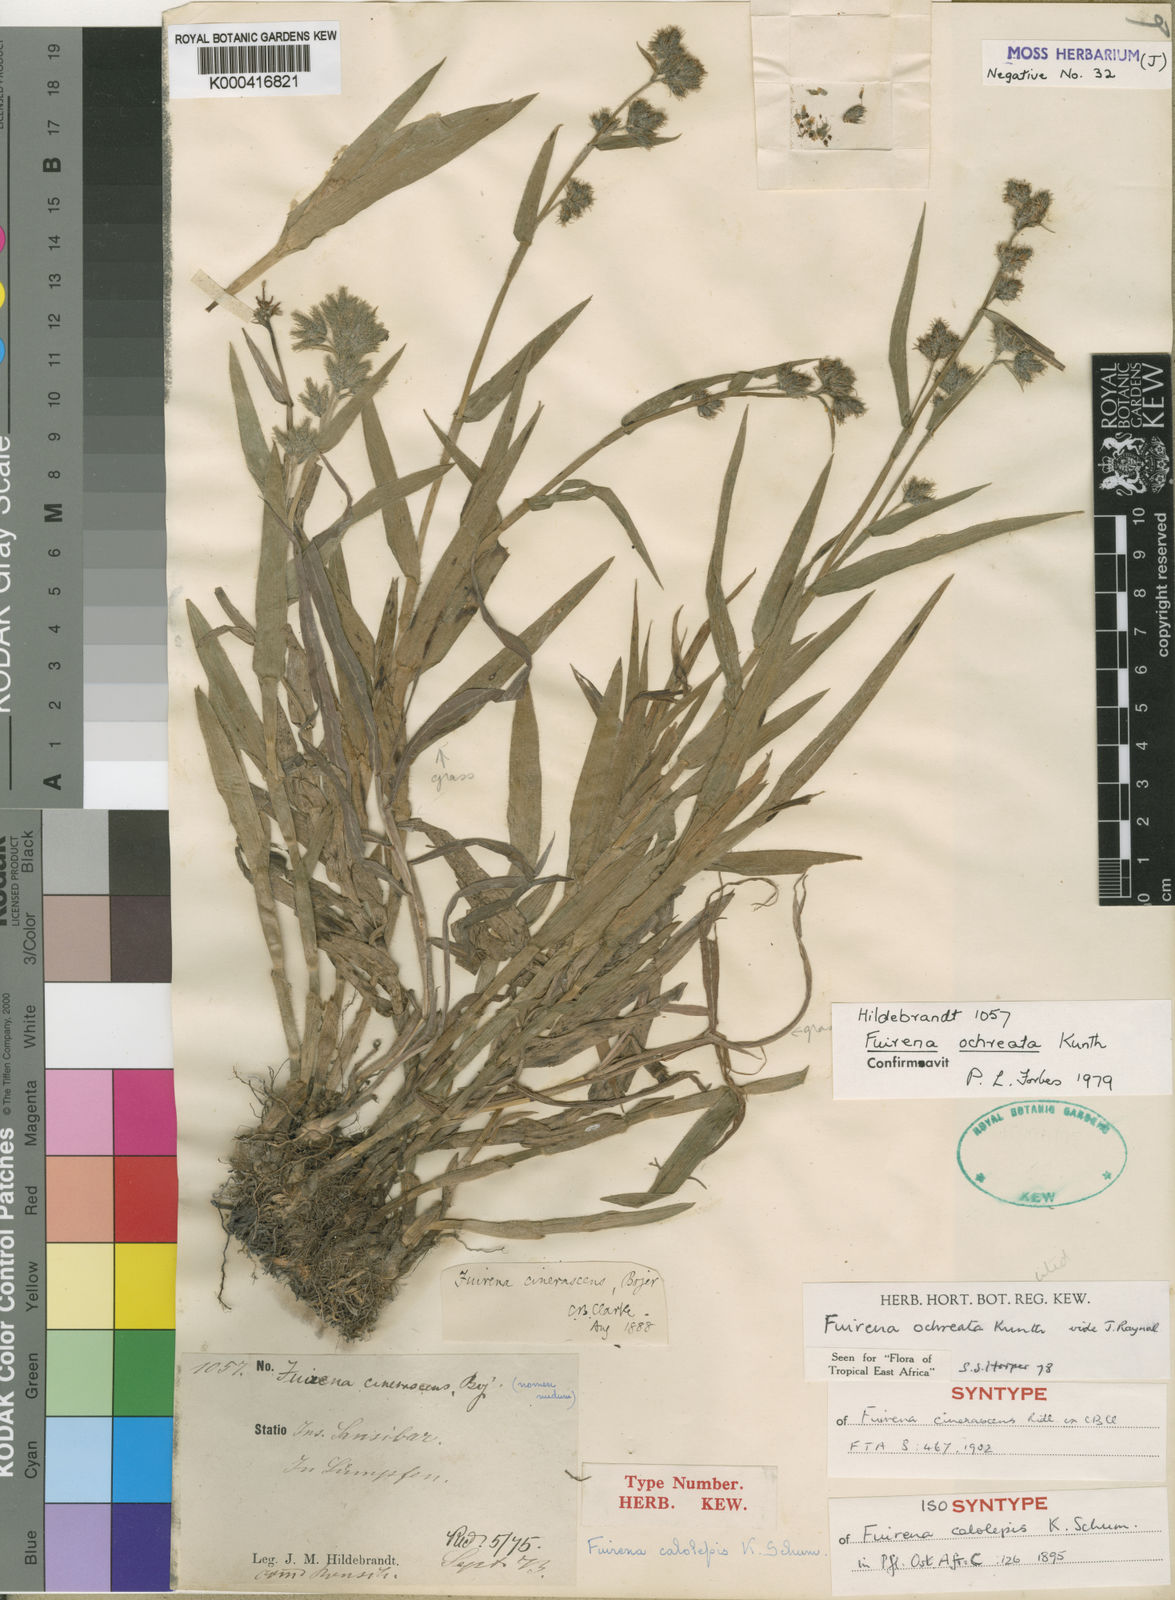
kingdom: Plantae
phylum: Tracheophyta
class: Liliopsida
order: Poales
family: Cyperaceae
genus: Fuirena
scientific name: Fuirena ochreata
